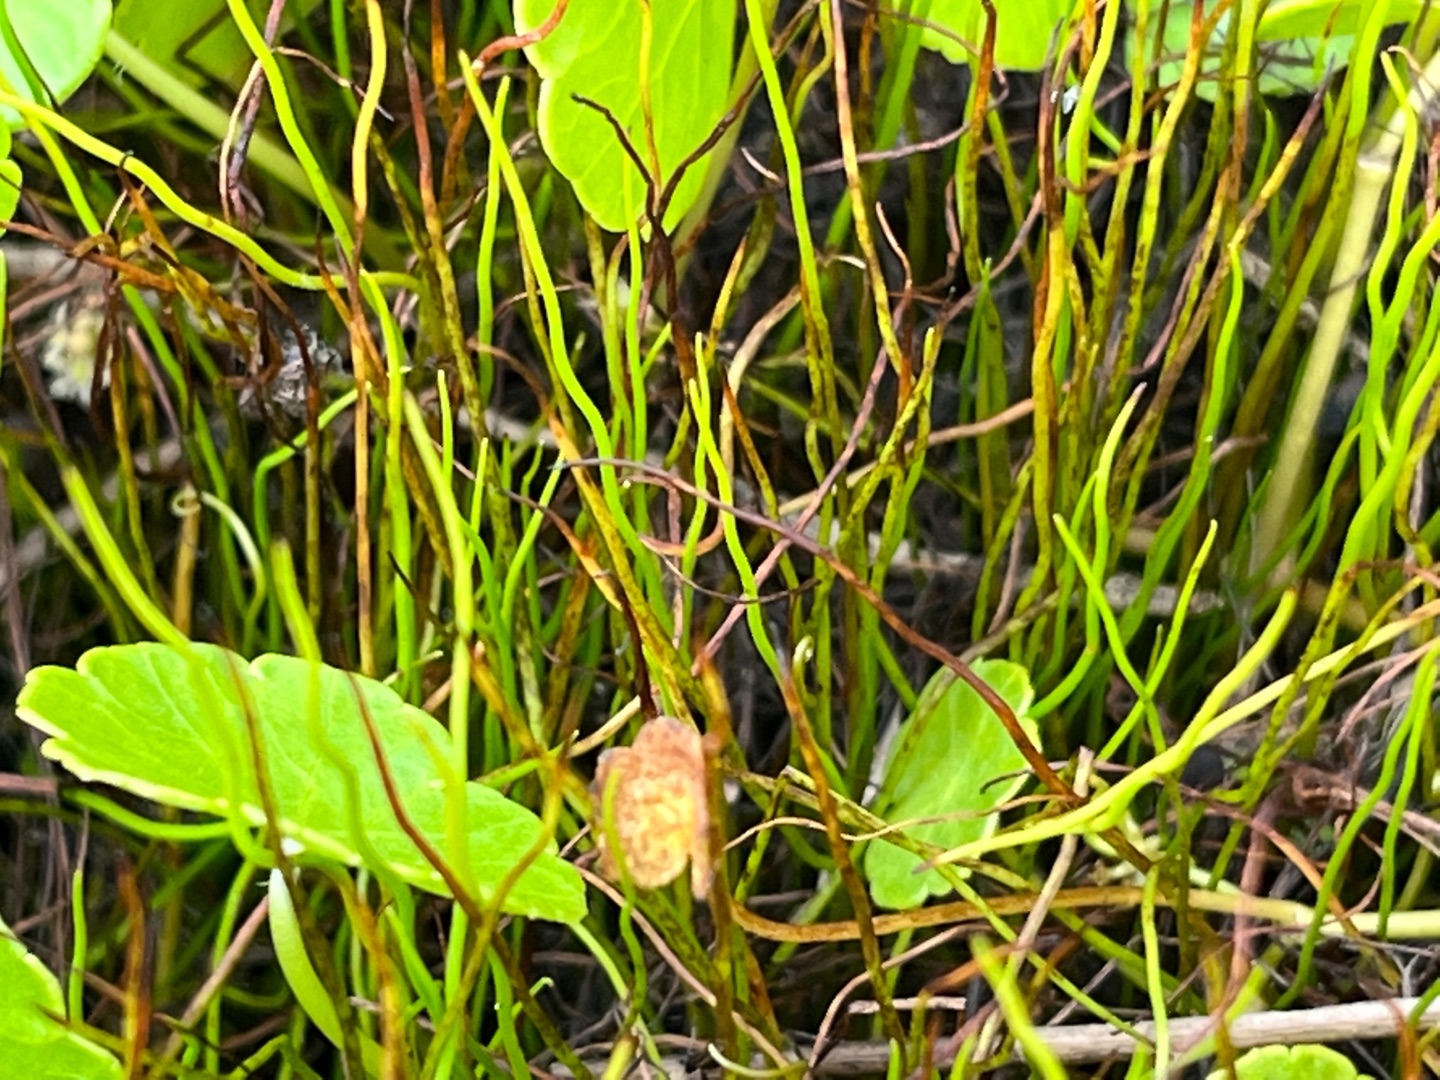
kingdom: Plantae
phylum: Tracheophyta
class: Polypodiopsida
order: Salviniales
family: Marsileaceae
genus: Pilularia
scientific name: Pilularia globulifera
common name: Pilledrager
